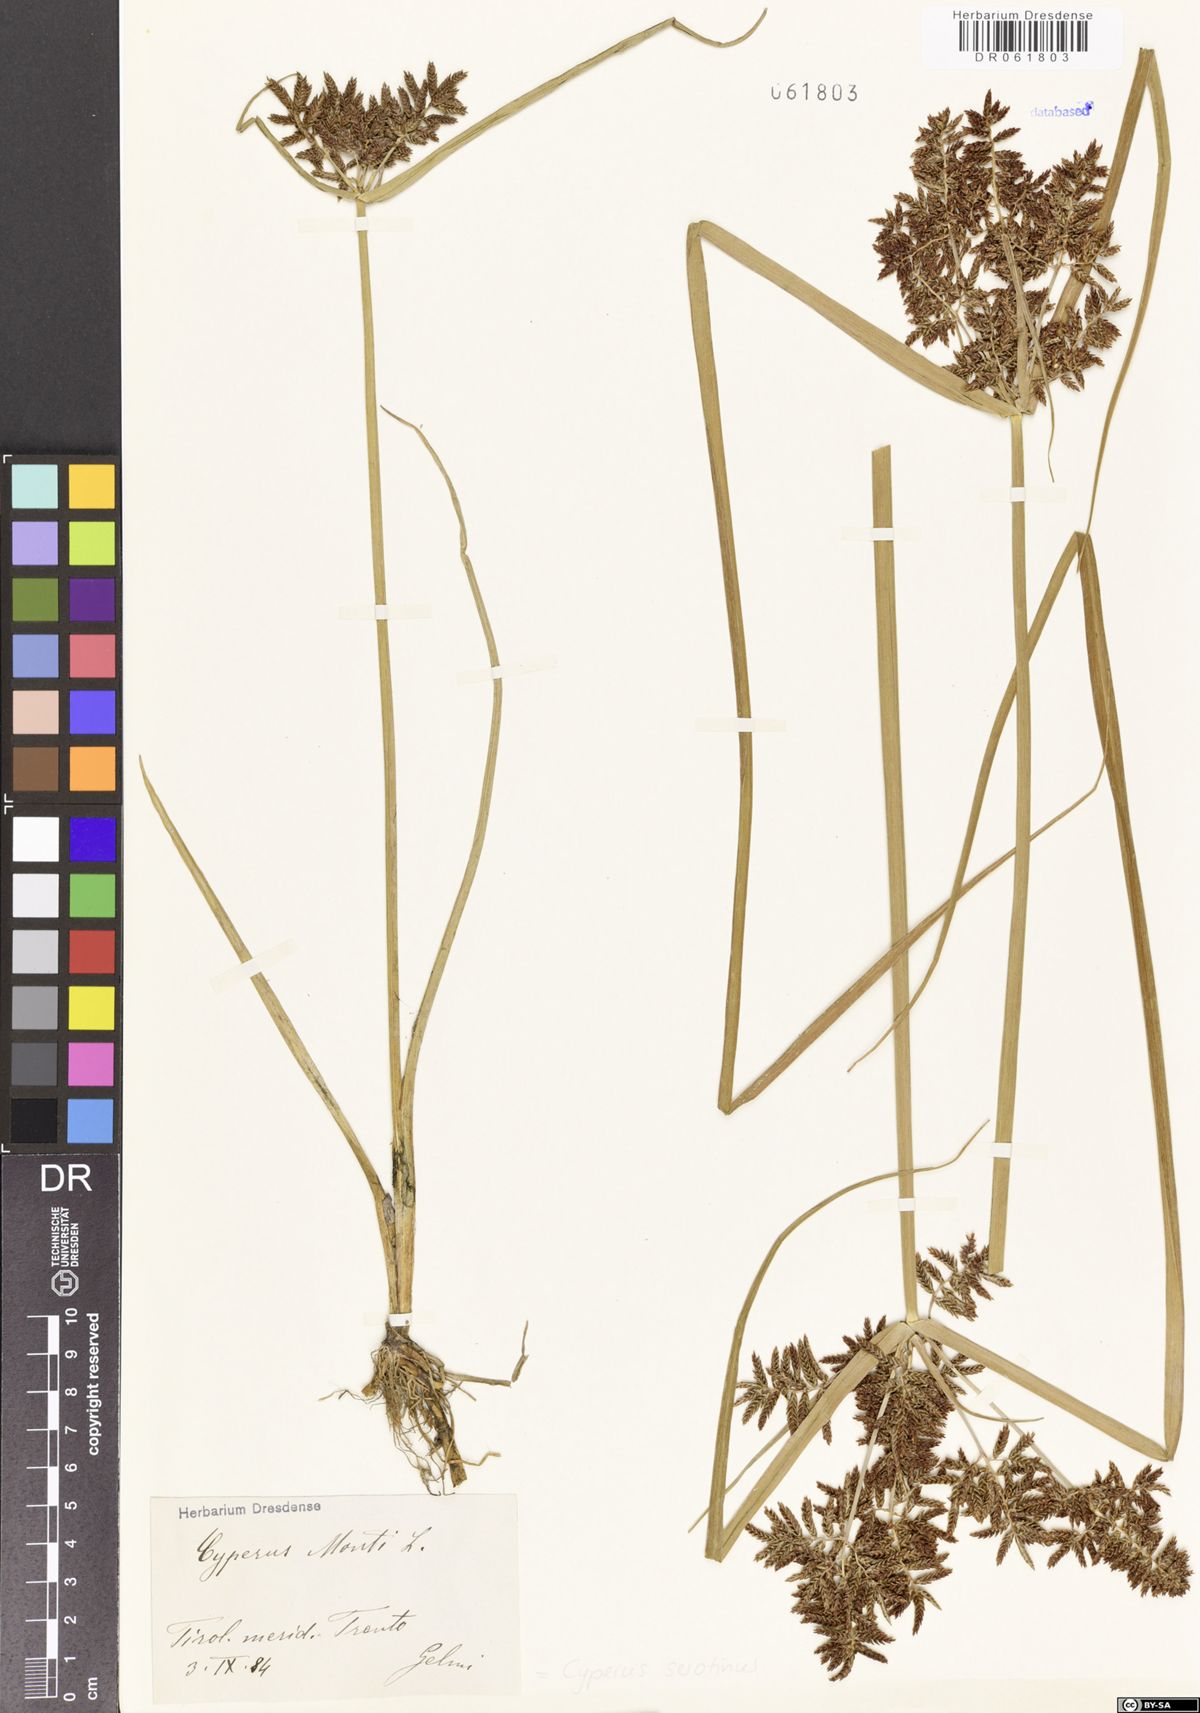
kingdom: Plantae
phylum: Tracheophyta
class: Liliopsida
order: Poales
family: Cyperaceae
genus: Cyperus
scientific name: Cyperus serotinus
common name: Tidalmarsh flatsedge
